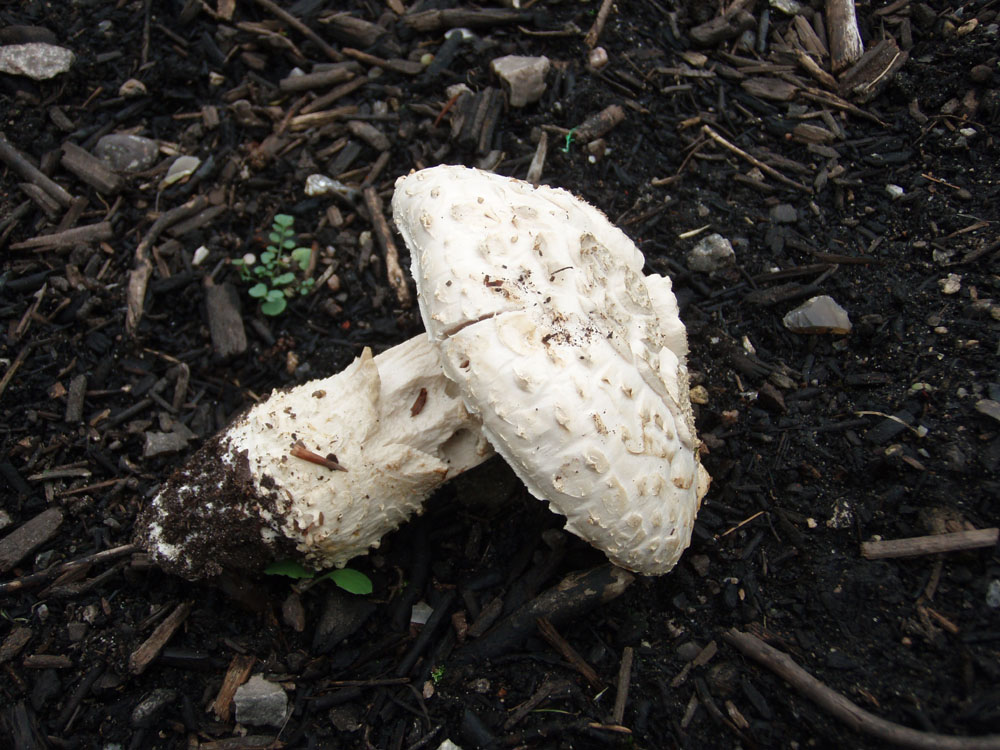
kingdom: Fungi
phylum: Basidiomycota
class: Agaricomycetes
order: Agaricales
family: Amanitaceae
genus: Aspidella
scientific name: Aspidella solitaria
